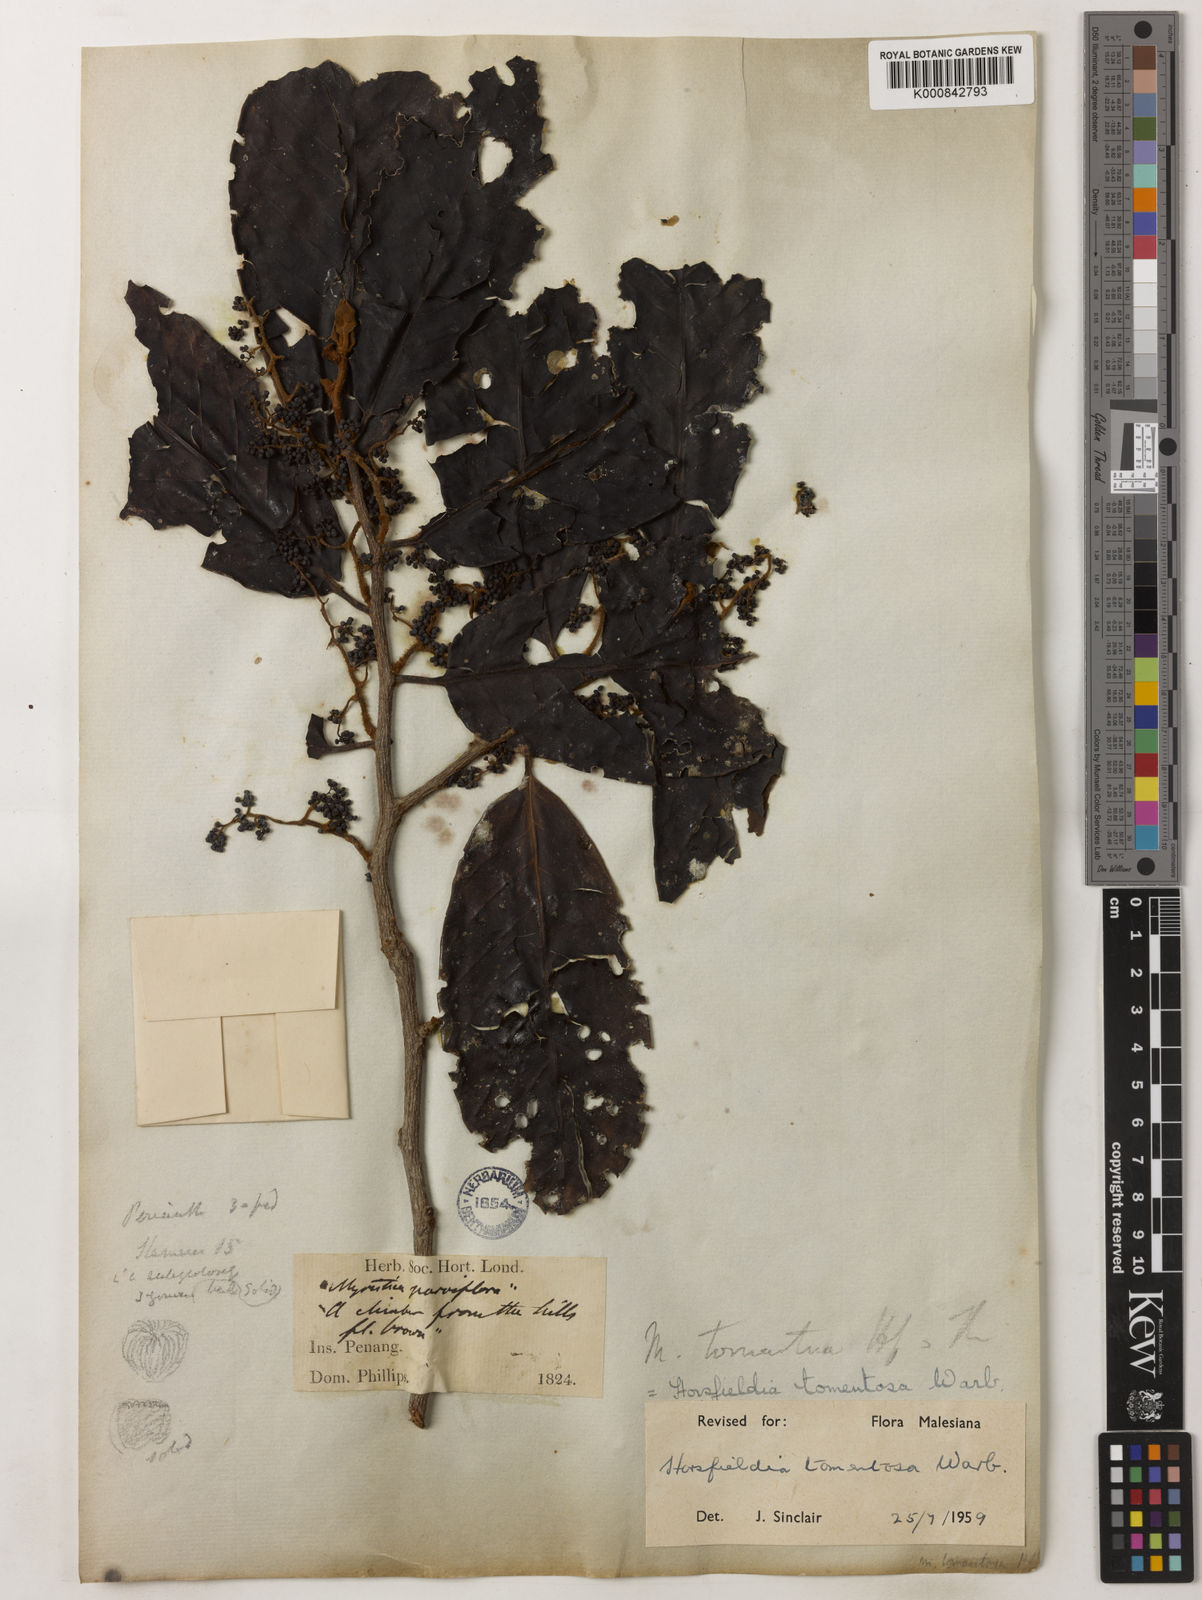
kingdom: Plantae
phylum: Tracheophyta
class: Magnoliopsida
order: Magnoliales
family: Myristicaceae
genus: Horsfieldia
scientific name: Horsfieldia tomentosa
